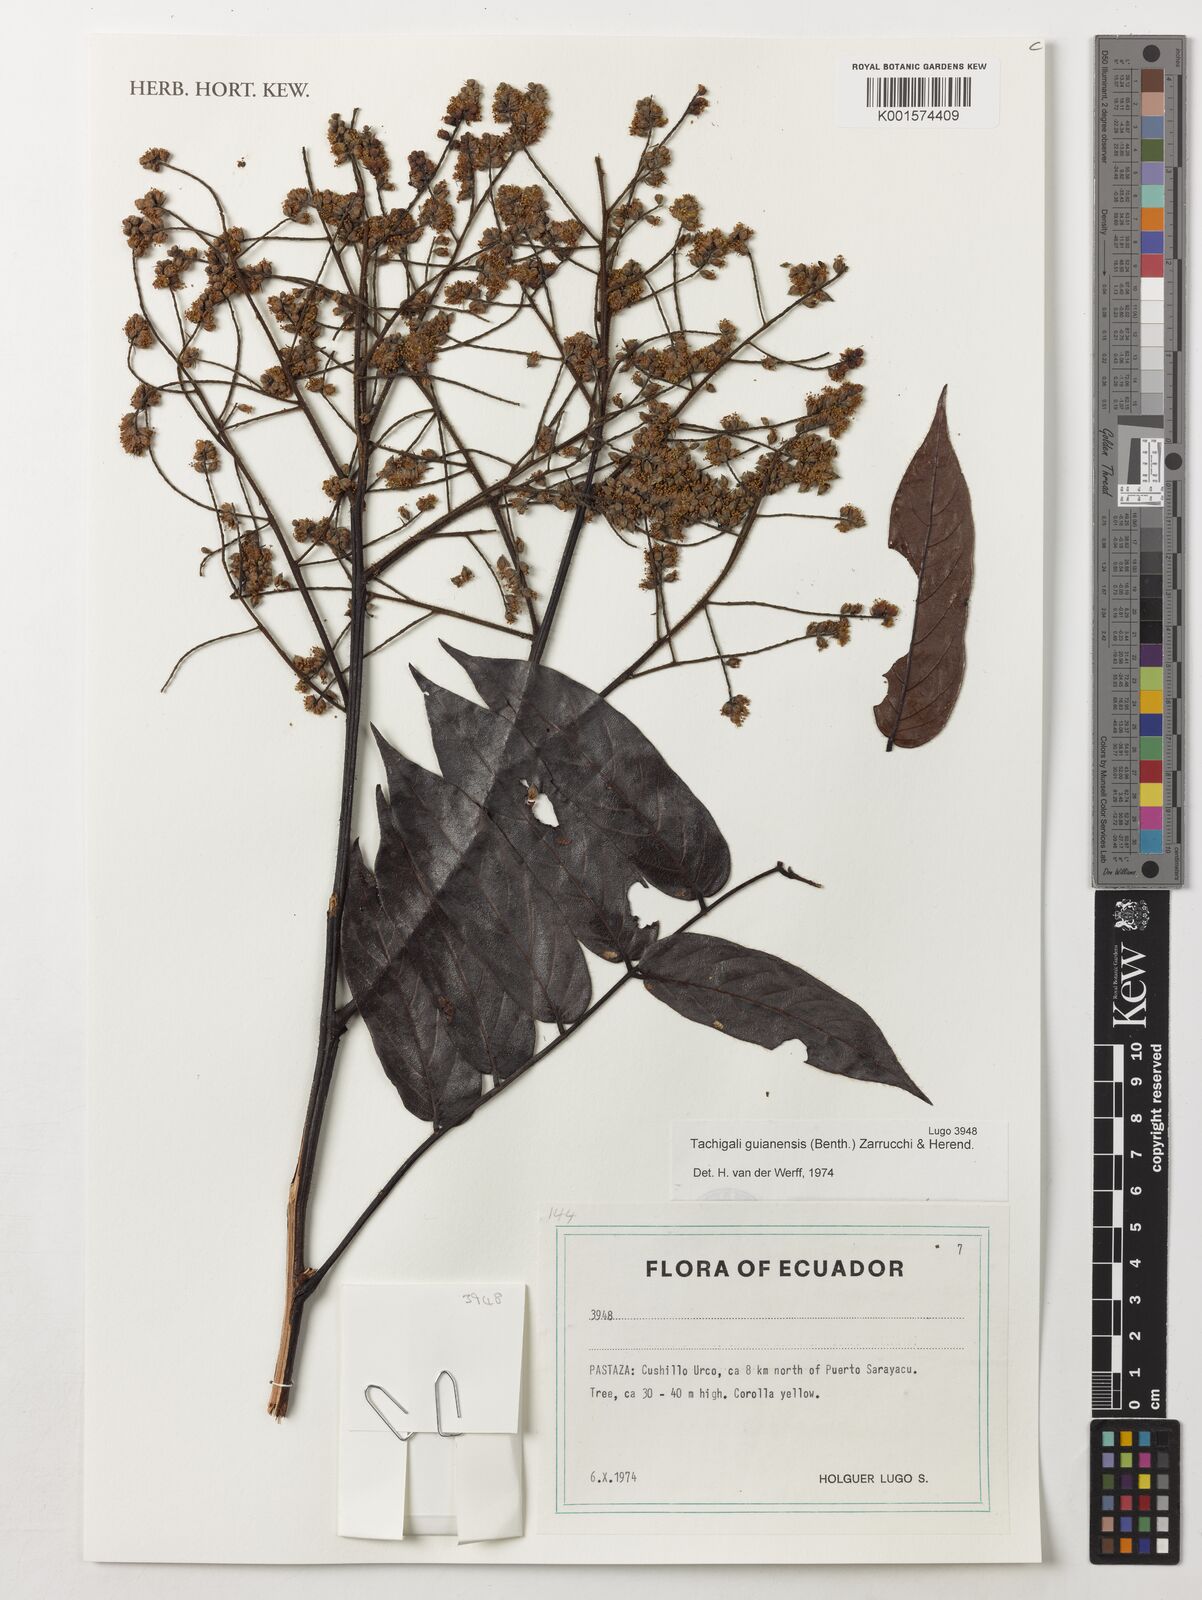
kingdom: Plantae
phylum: Tracheophyta
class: Magnoliopsida
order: Fabales
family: Fabaceae
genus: Tachigali
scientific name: Tachigali guianensis
